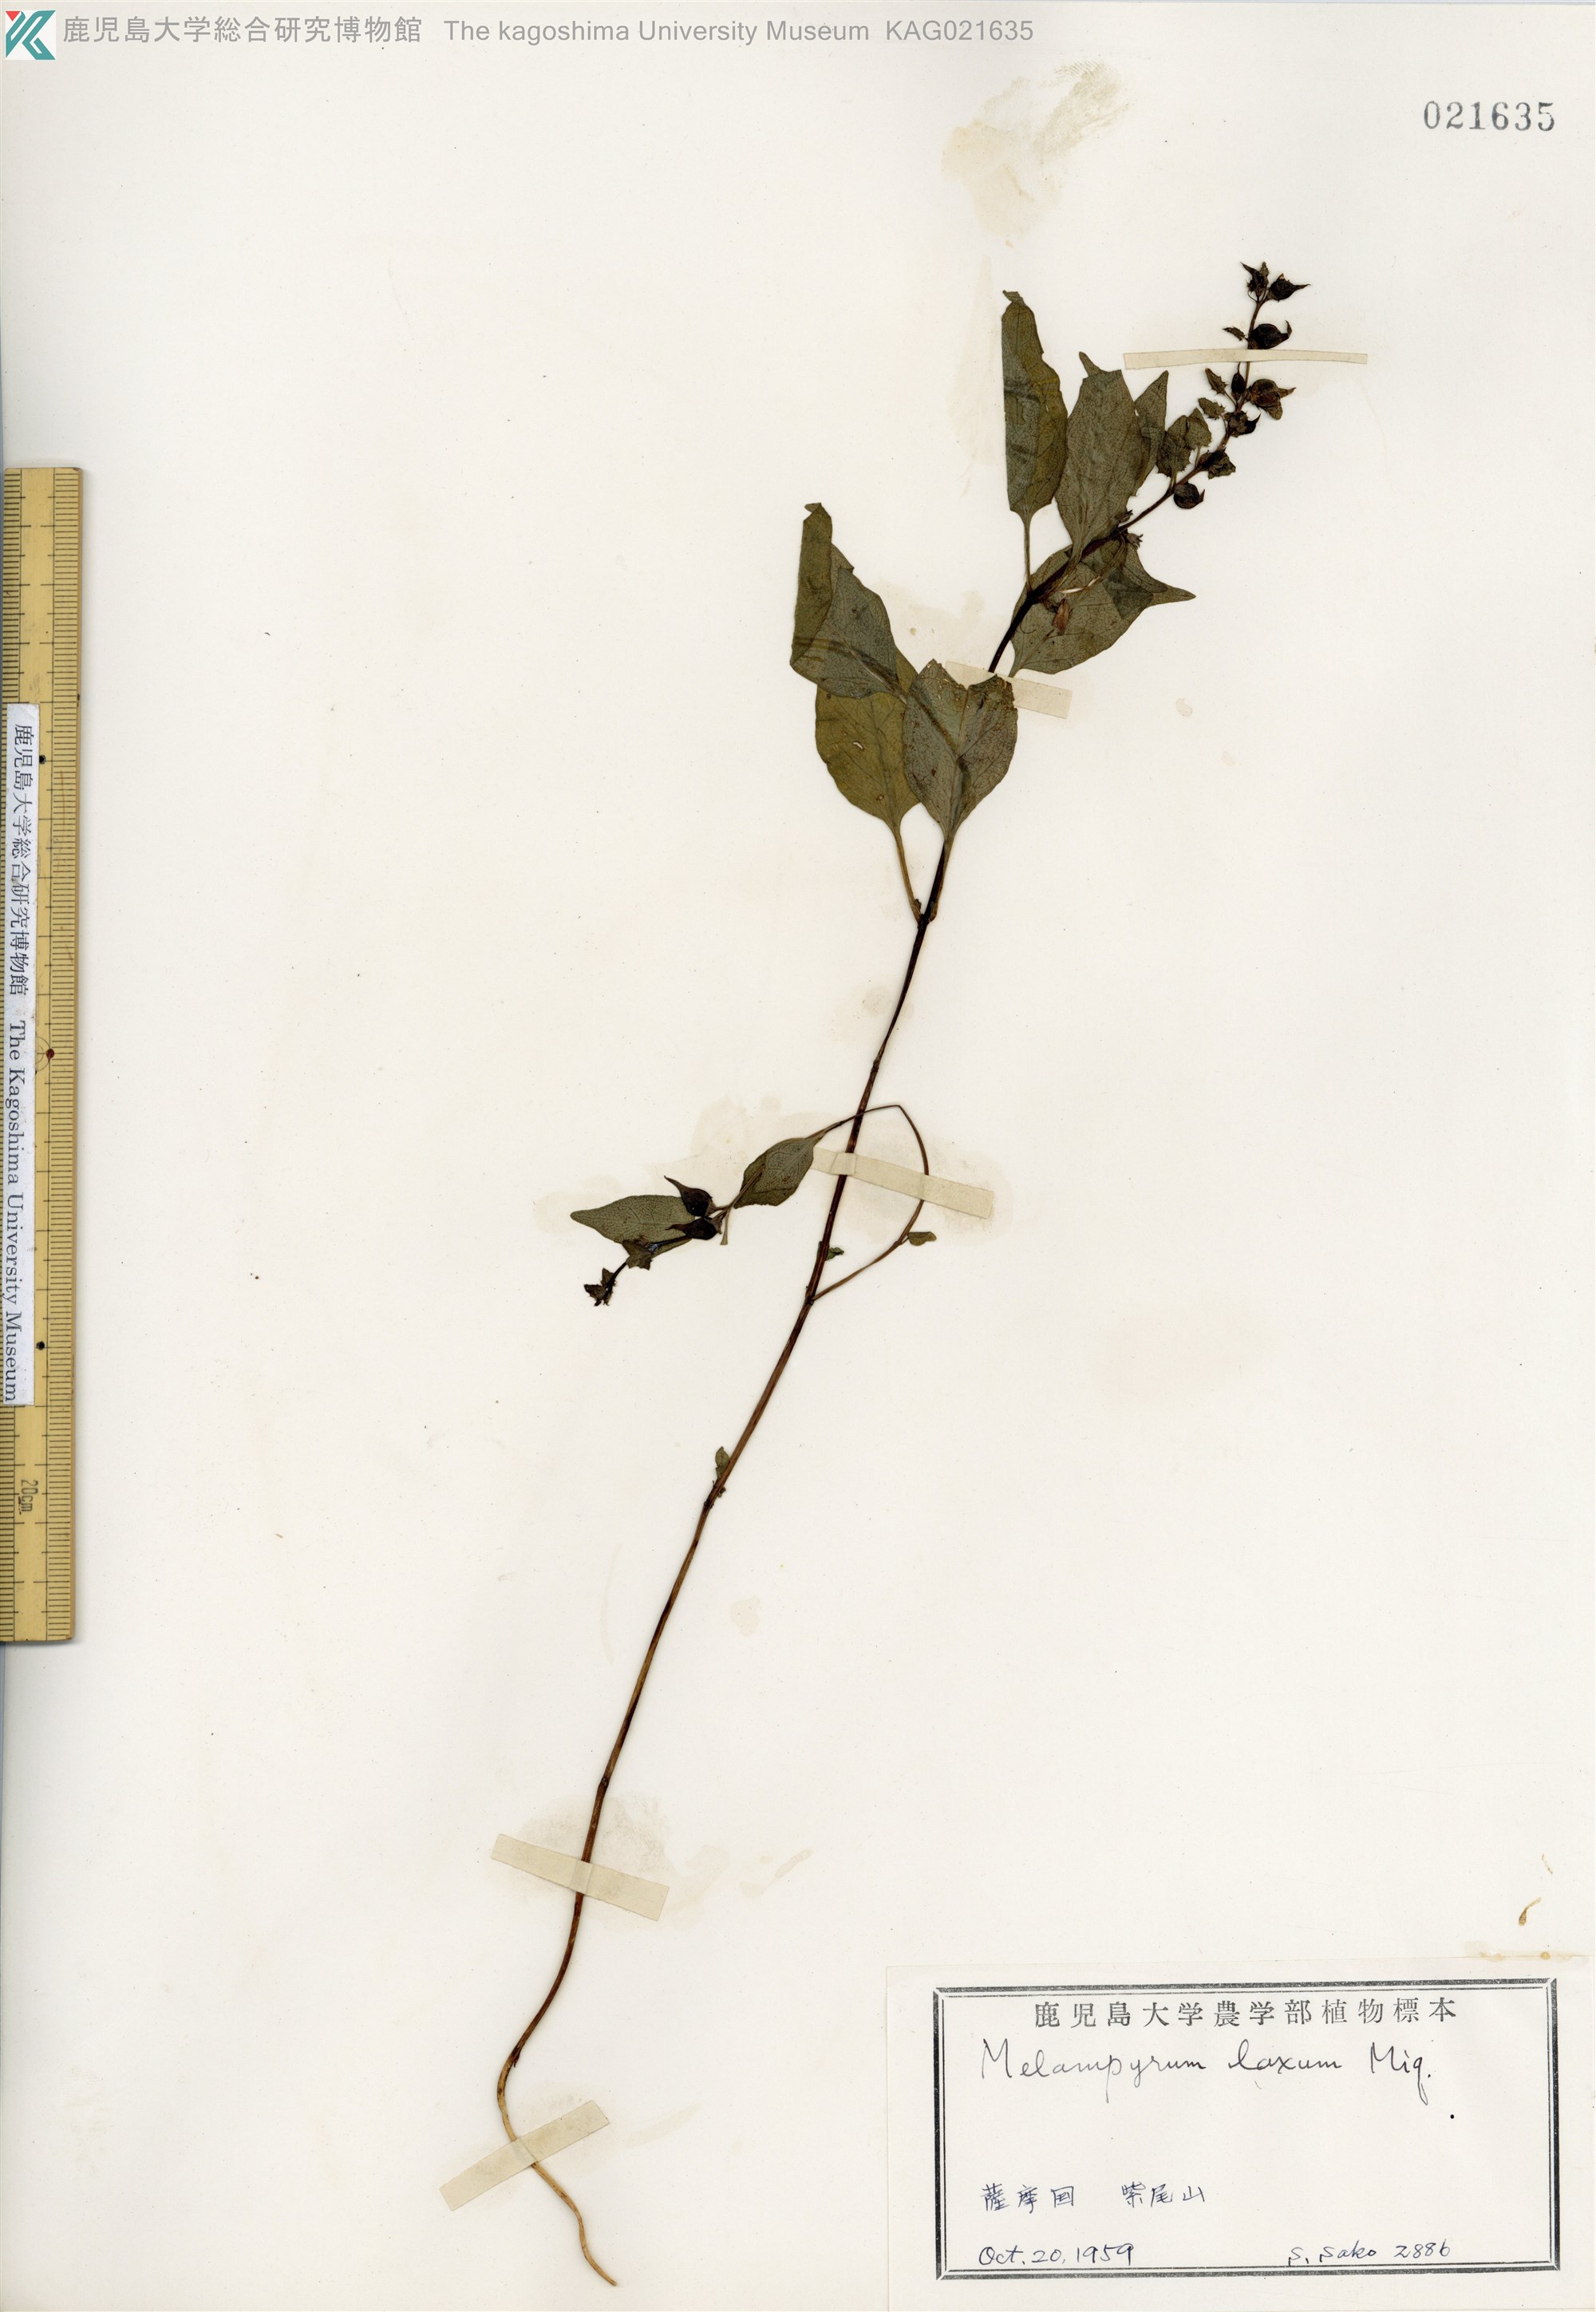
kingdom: Plantae
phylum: Tracheophyta
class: Magnoliopsida
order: Lamiales
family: Orobanchaceae
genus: Melampyrum
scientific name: Melampyrum laxum
